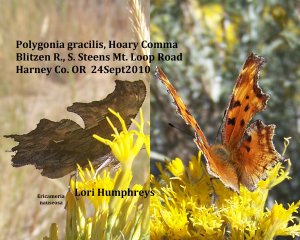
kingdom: Animalia
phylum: Arthropoda
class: Insecta
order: Lepidoptera
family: Nymphalidae
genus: Polygonia
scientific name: Polygonia gracilis
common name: Hoary Comma
